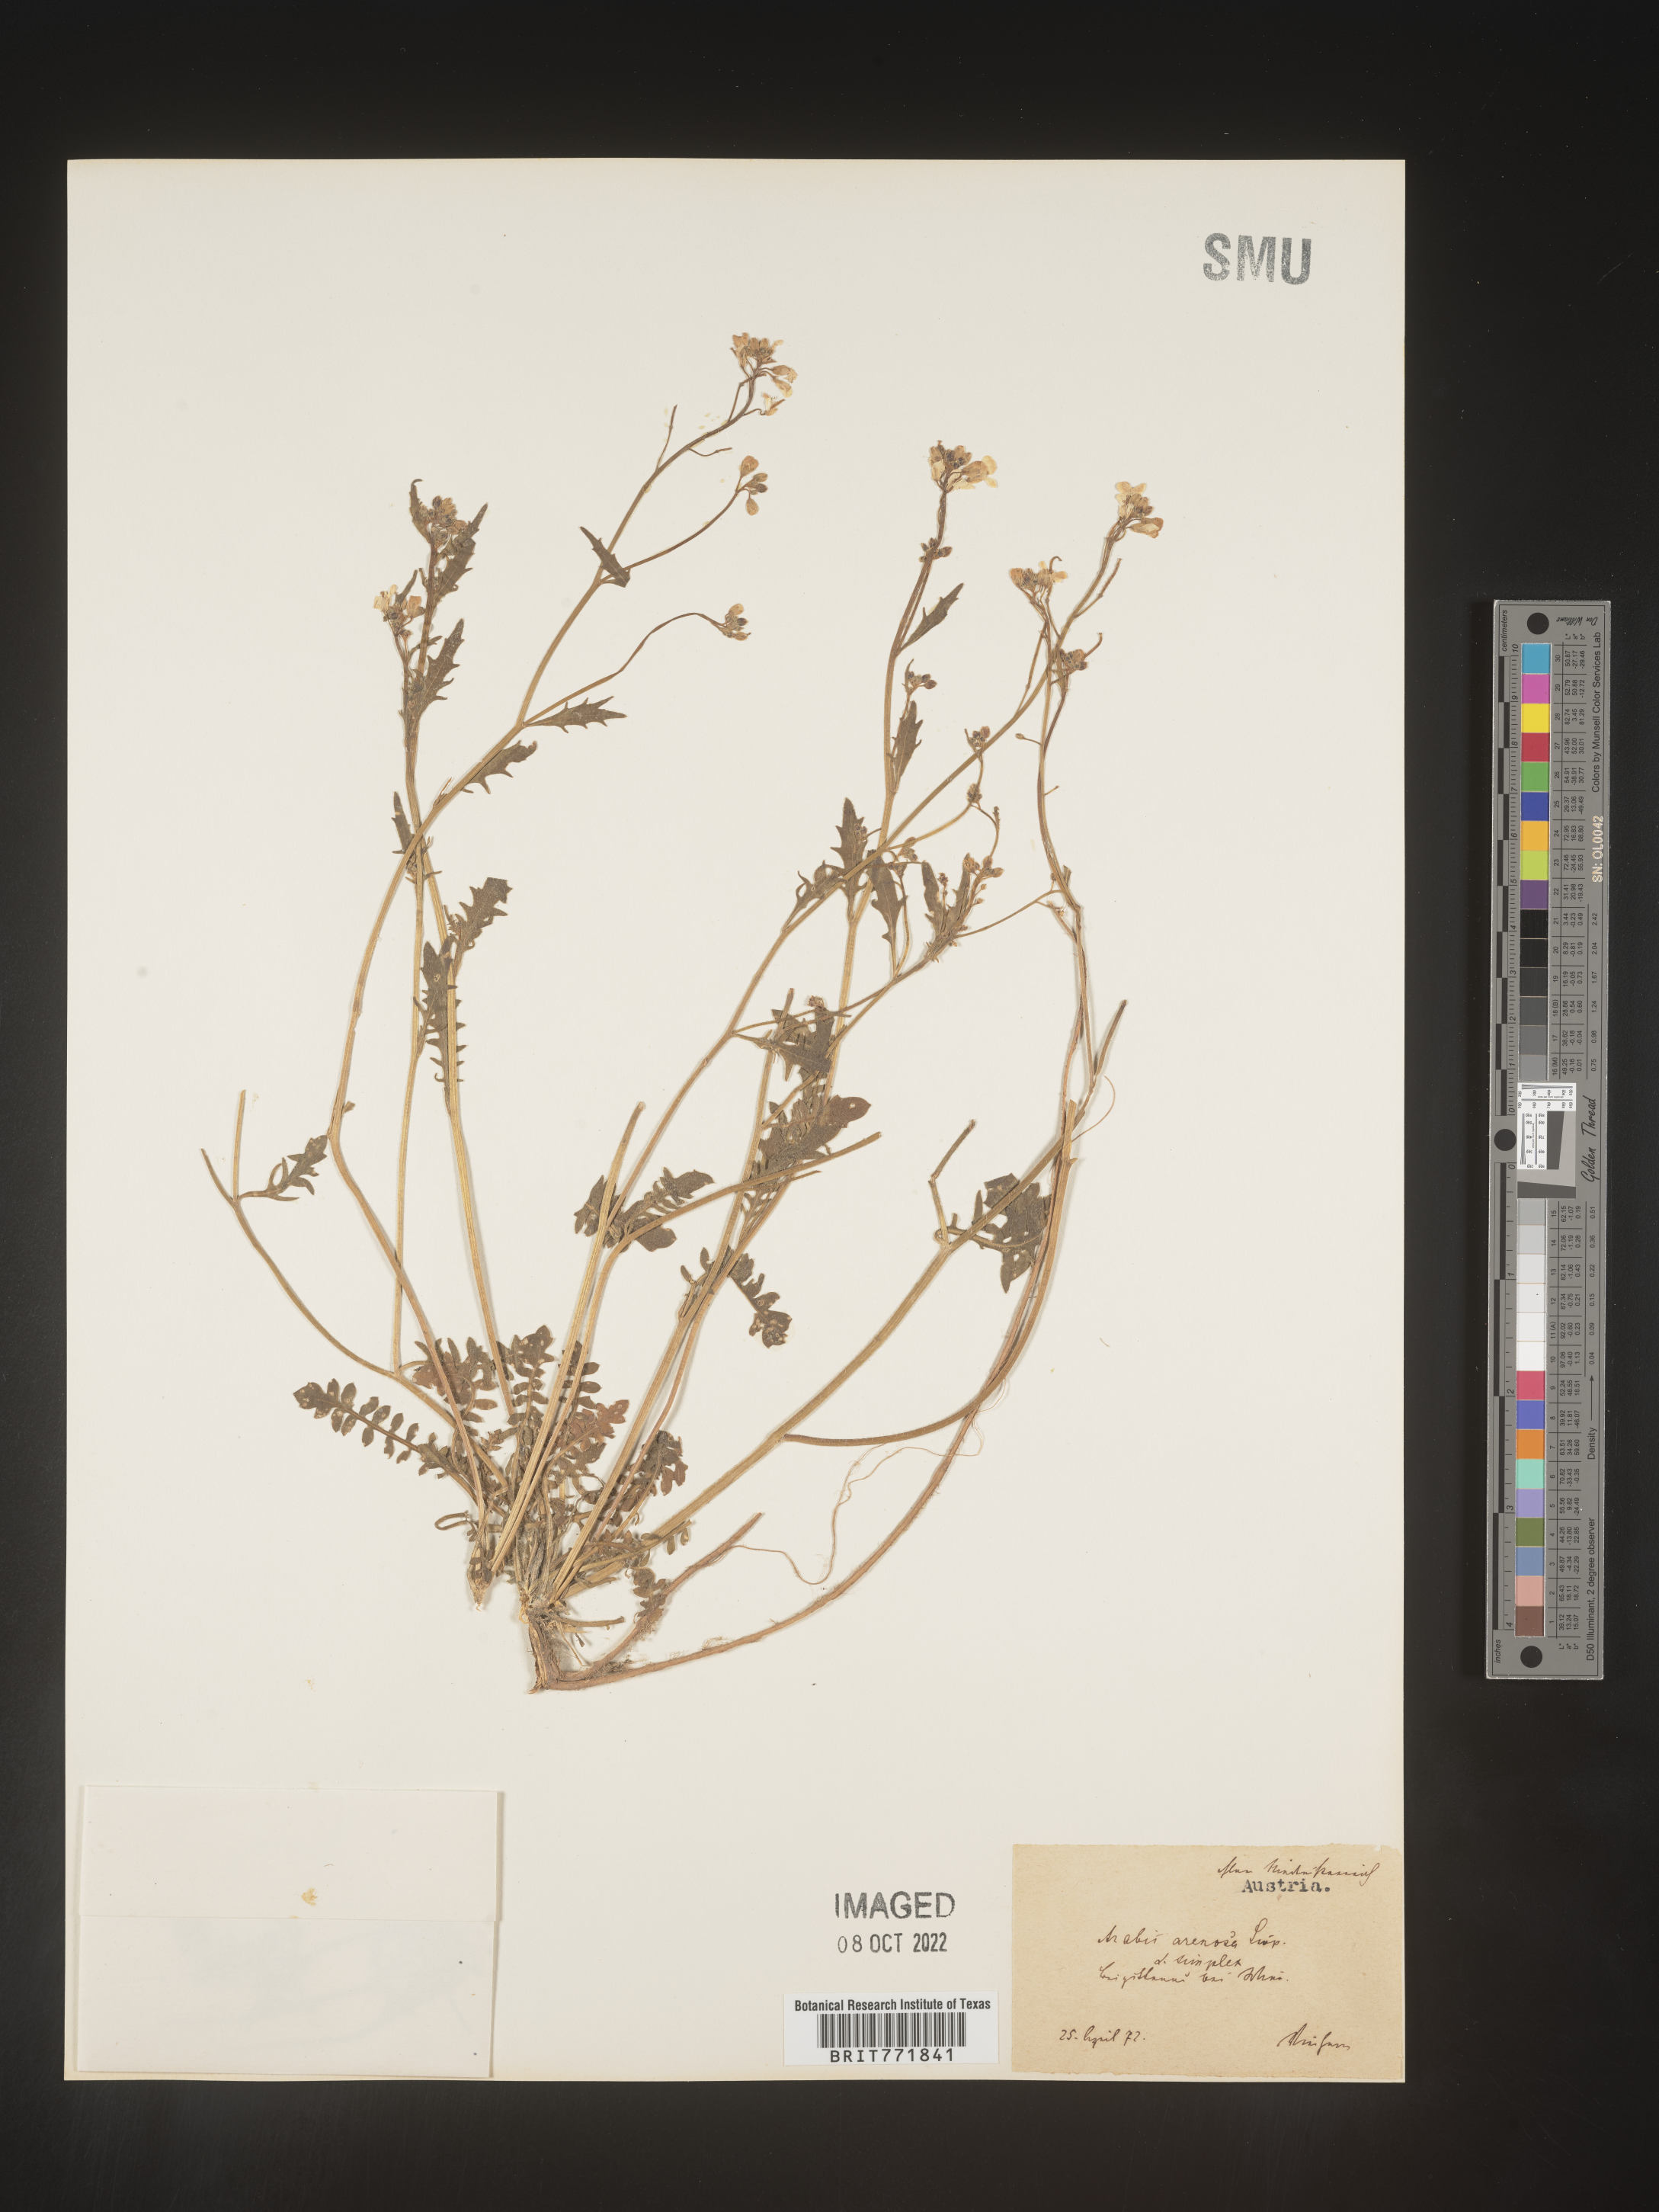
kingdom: Plantae
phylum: Tracheophyta
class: Magnoliopsida
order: Brassicales
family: Brassicaceae
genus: Arabis
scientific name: Arabis
